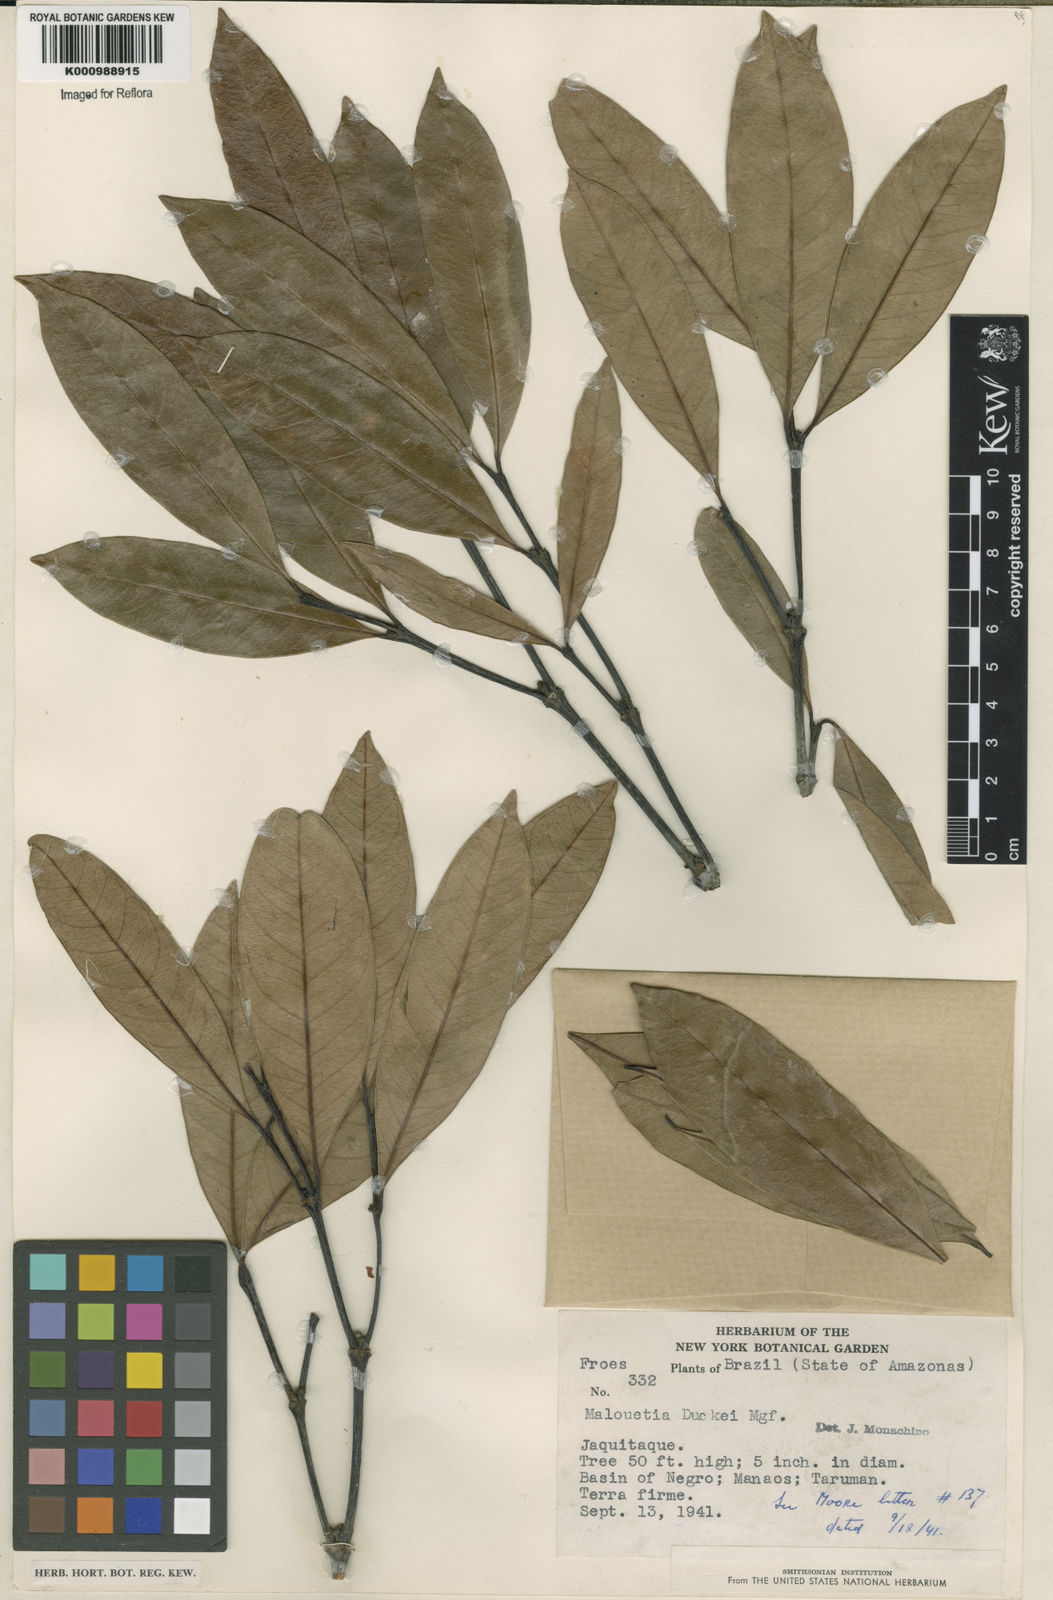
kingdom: Plantae
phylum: Tracheophyta
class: Magnoliopsida
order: Gentianales
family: Apocynaceae
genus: Malouetia
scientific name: Malouetia duckei
